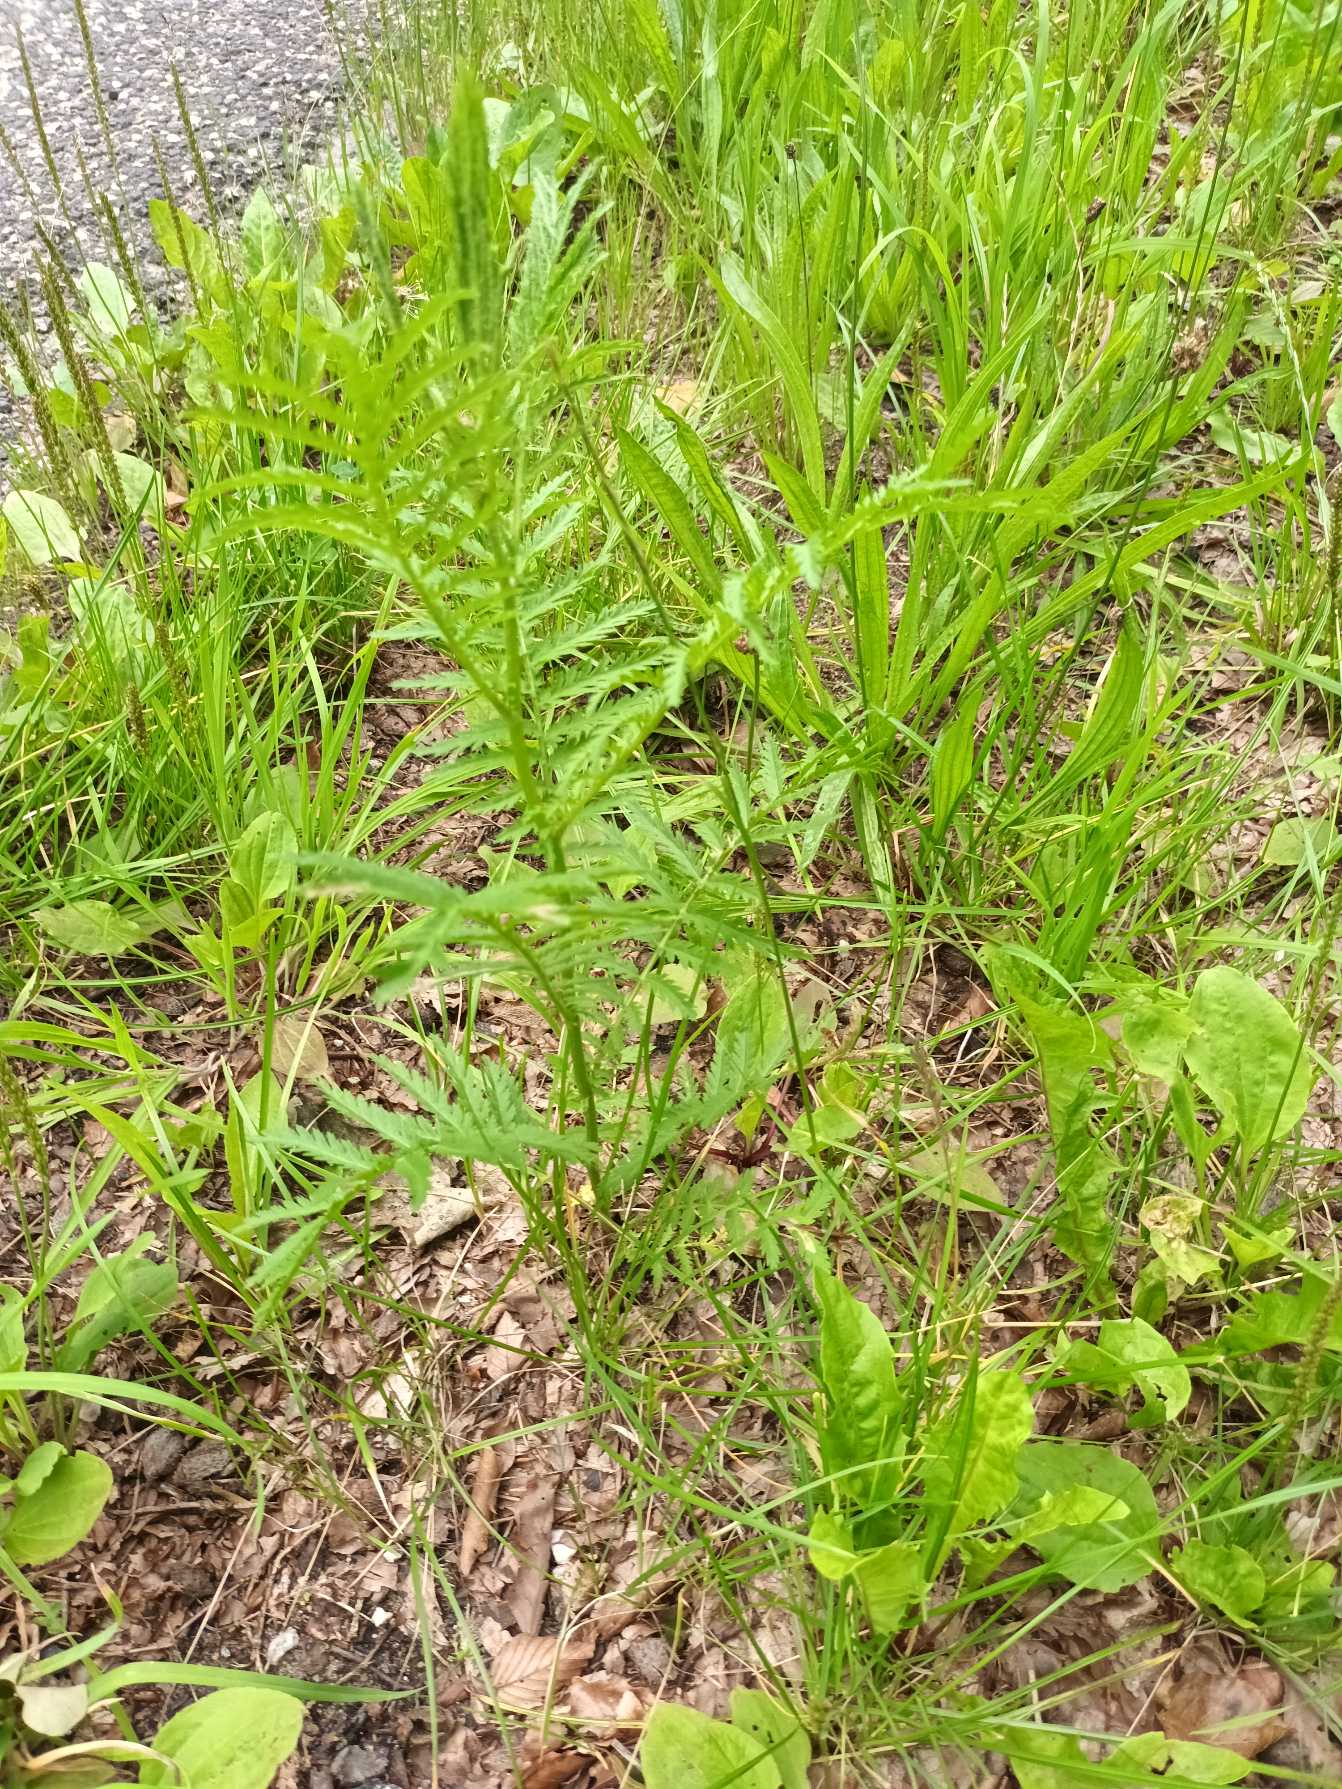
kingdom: Plantae
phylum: Tracheophyta
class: Magnoliopsida
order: Asterales
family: Asteraceae
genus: Tanacetum
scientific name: Tanacetum vulgare
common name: Rejnfan
